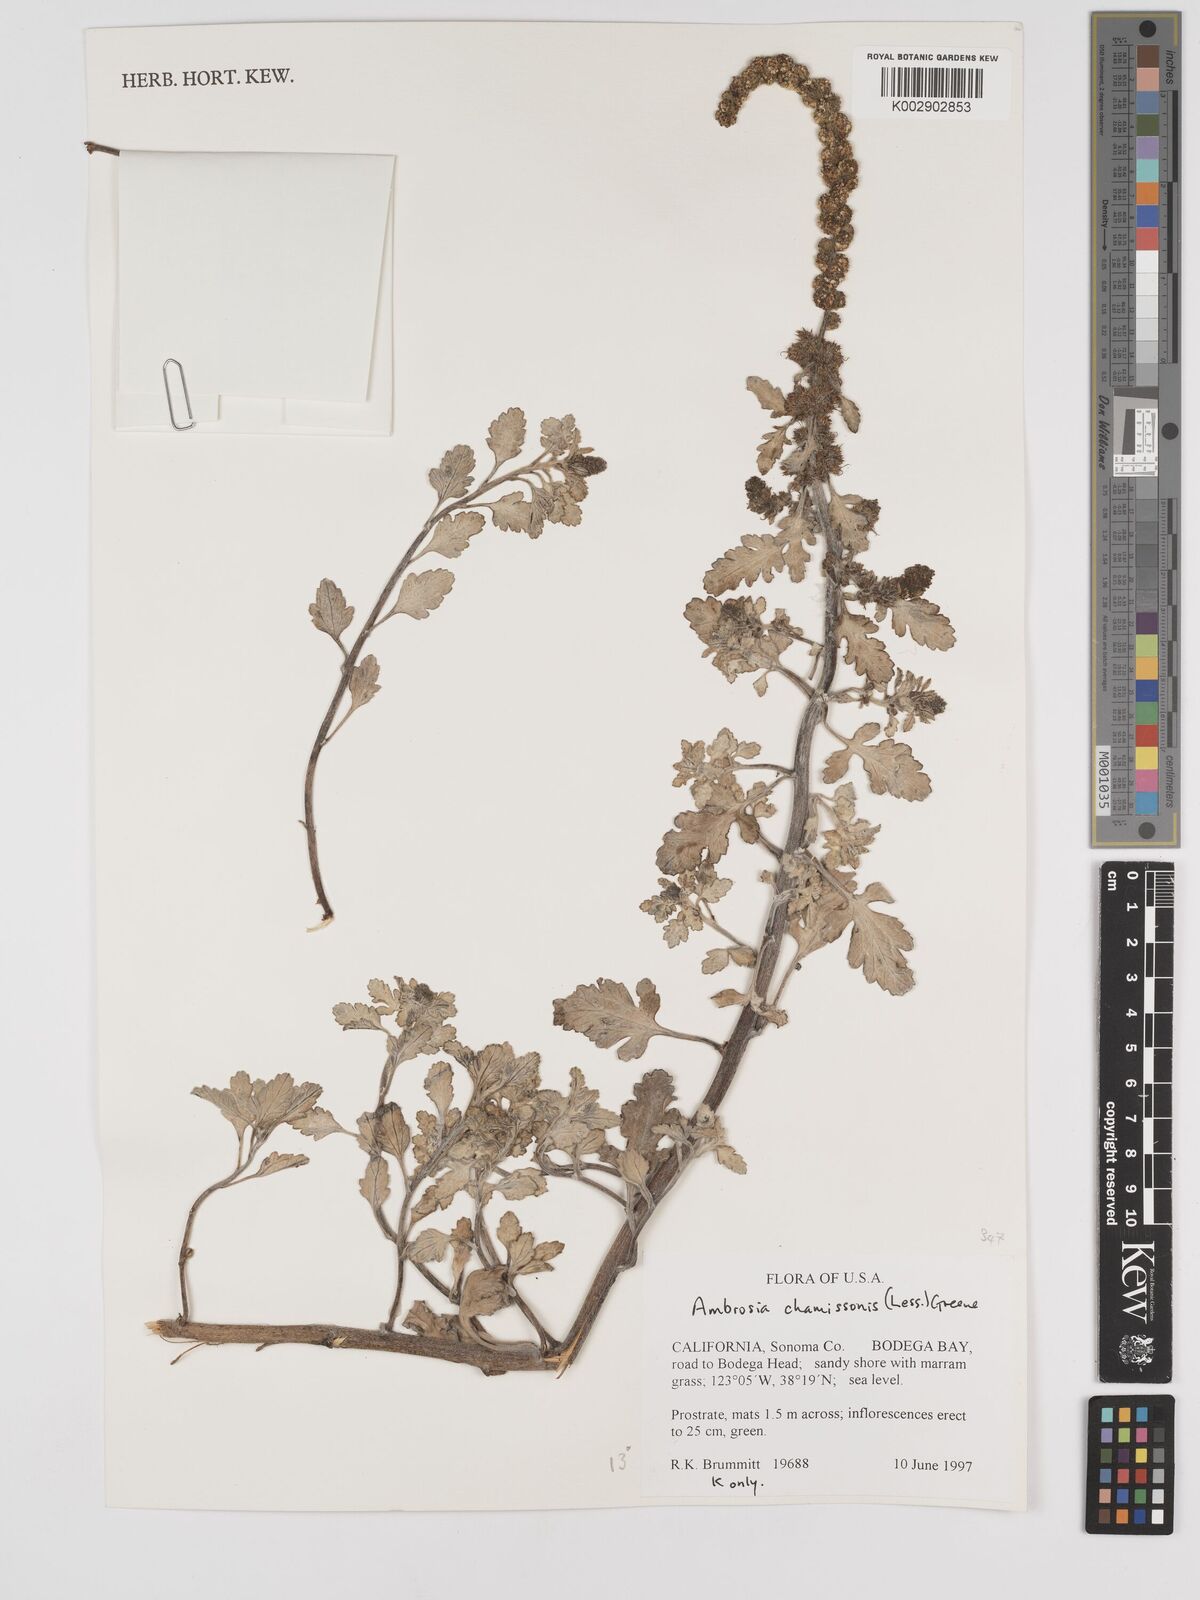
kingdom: Plantae
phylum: Tracheophyta
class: Magnoliopsida
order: Asterales
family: Asteraceae
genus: Ambrosia
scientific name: Ambrosia chamissonis
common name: Beachbur
